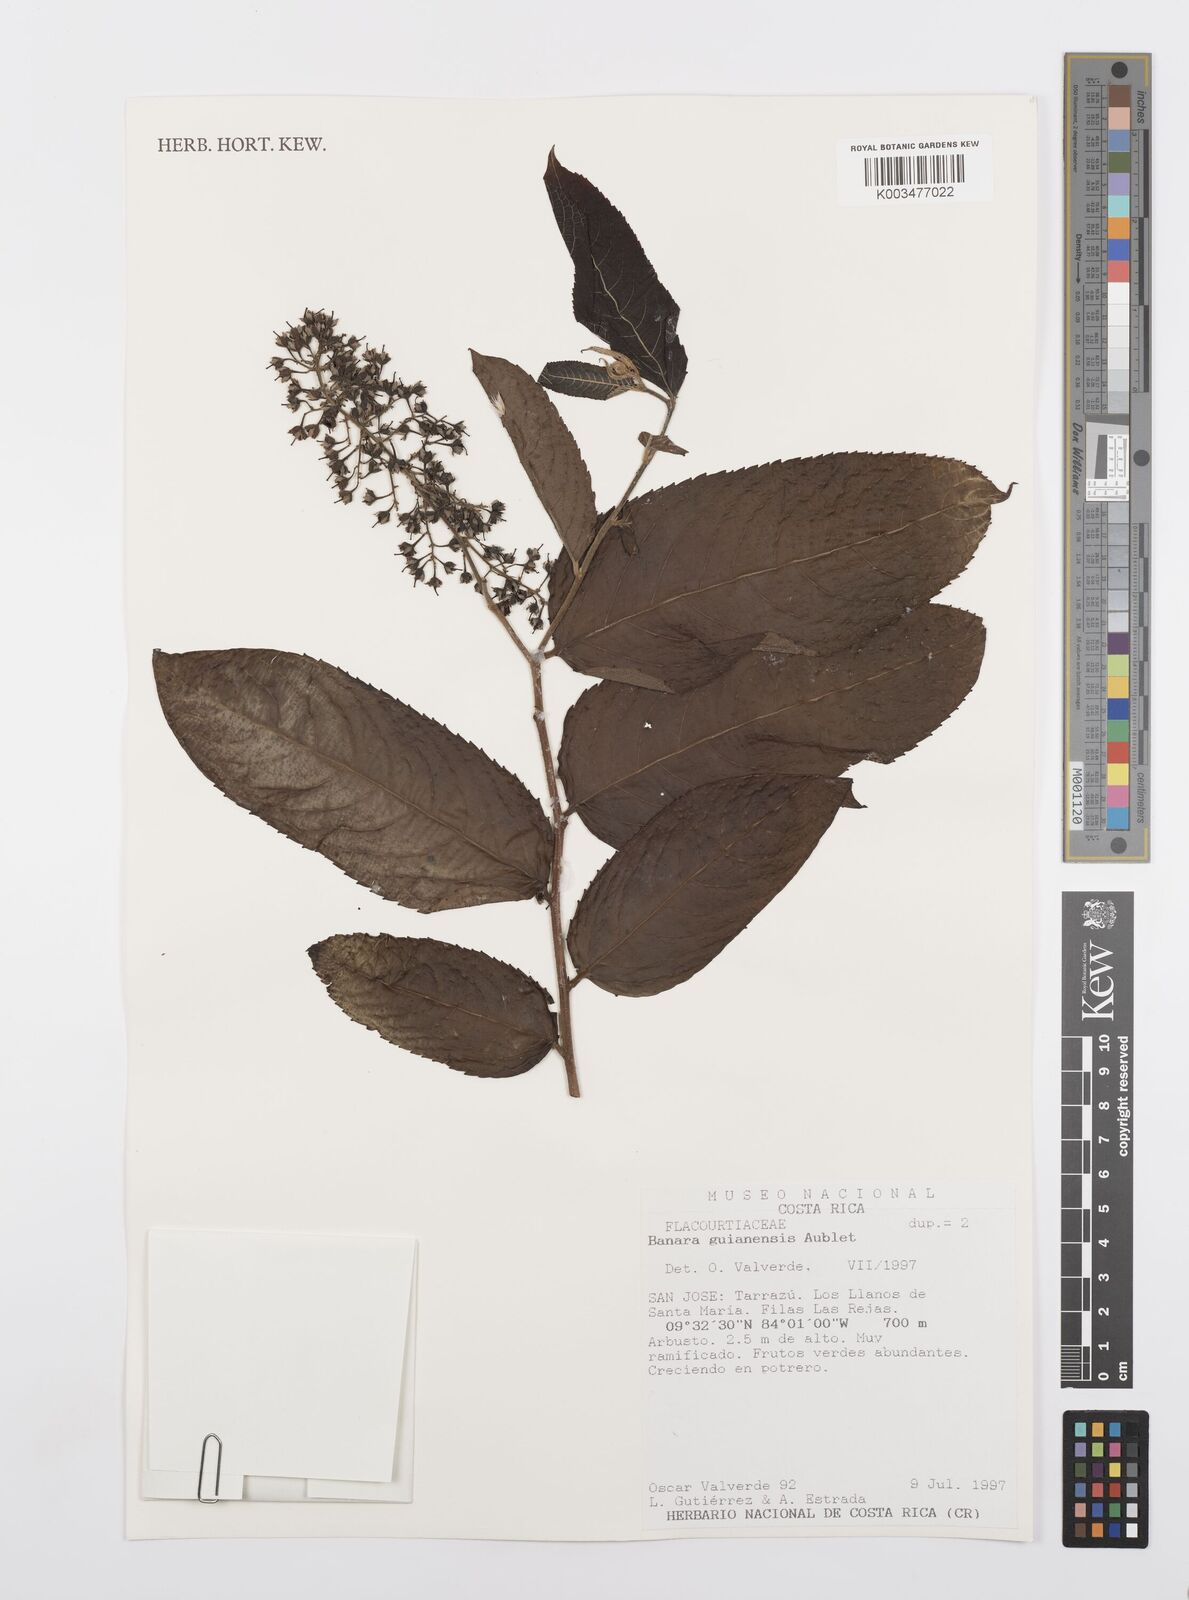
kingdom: Plantae
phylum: Tracheophyta
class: Magnoliopsida
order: Malpighiales
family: Salicaceae
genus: Banara
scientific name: Banara guianensis
